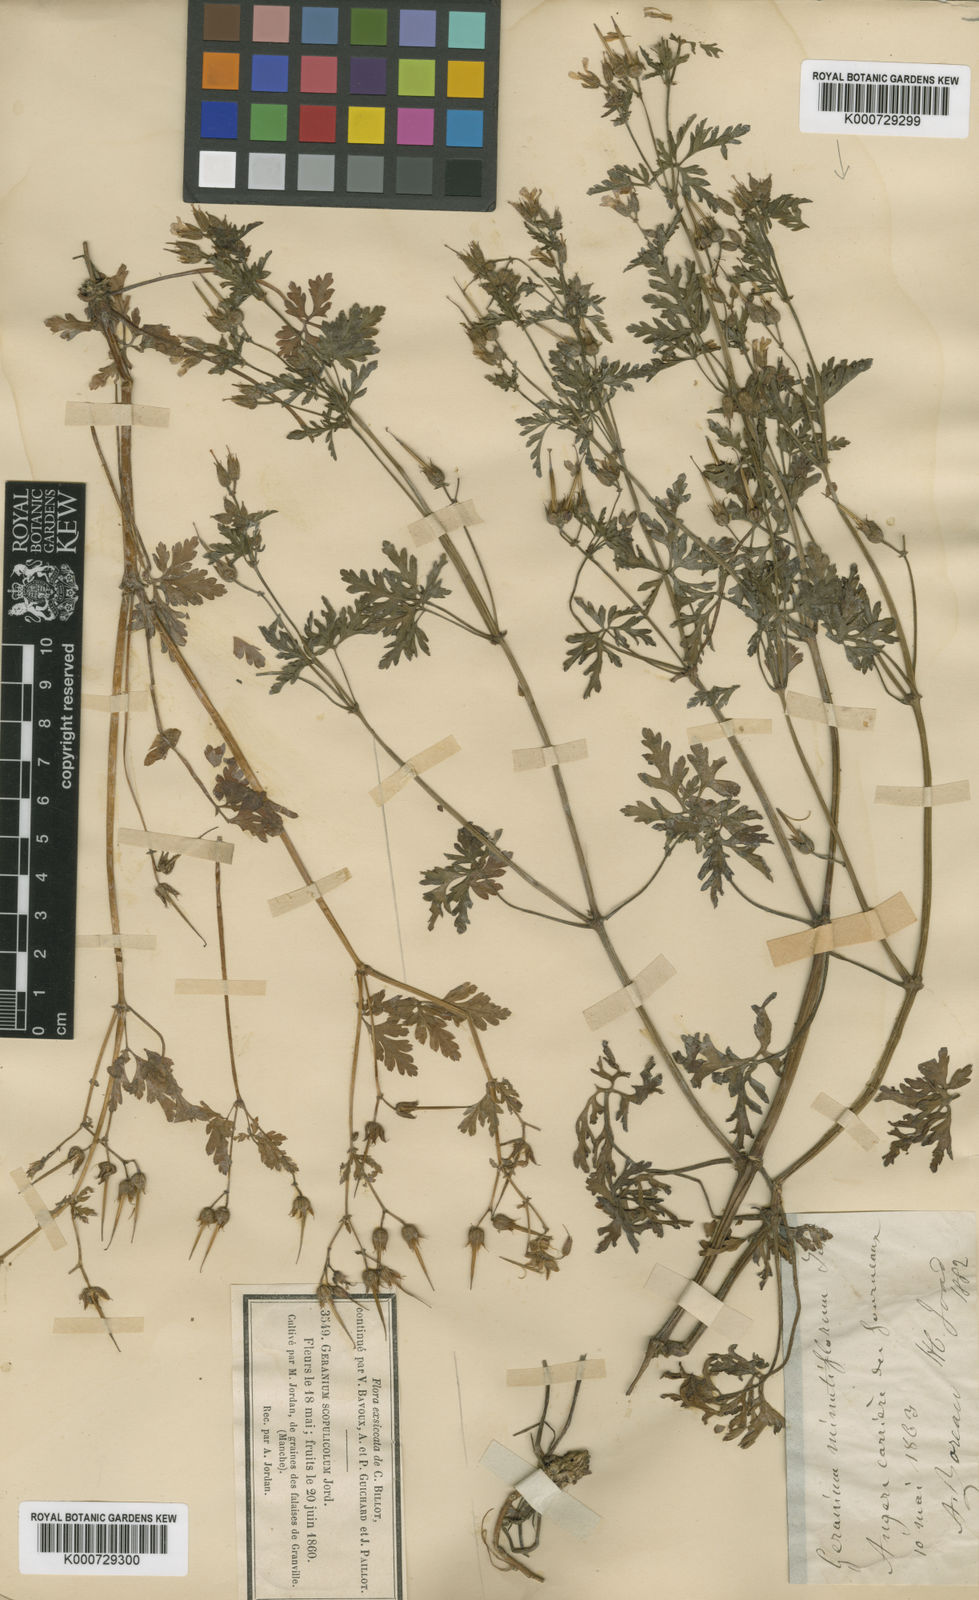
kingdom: Plantae
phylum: Tracheophyta
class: Magnoliopsida
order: Geraniales
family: Geraniaceae
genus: Geranium
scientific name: Geranium purpureum
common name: Little-robin
